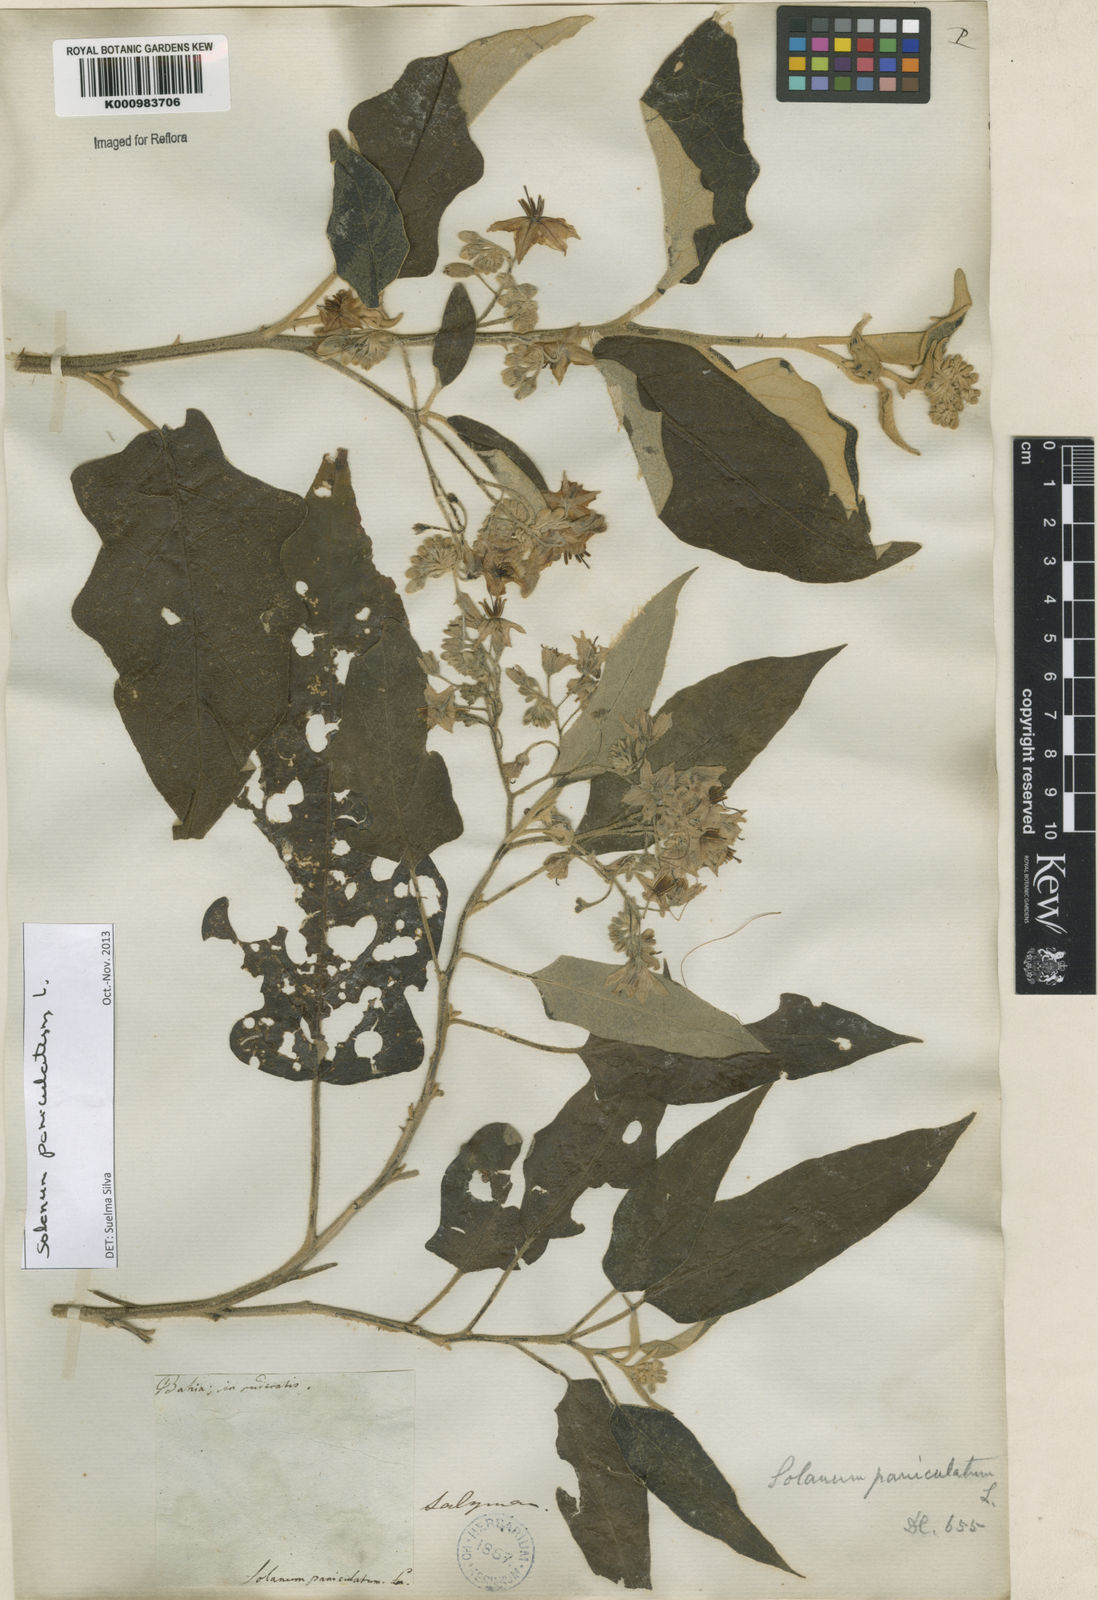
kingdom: Plantae
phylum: Tracheophyta
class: Magnoliopsida
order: Solanales
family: Solanaceae
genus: Solanum
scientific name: Solanum paniculatum
